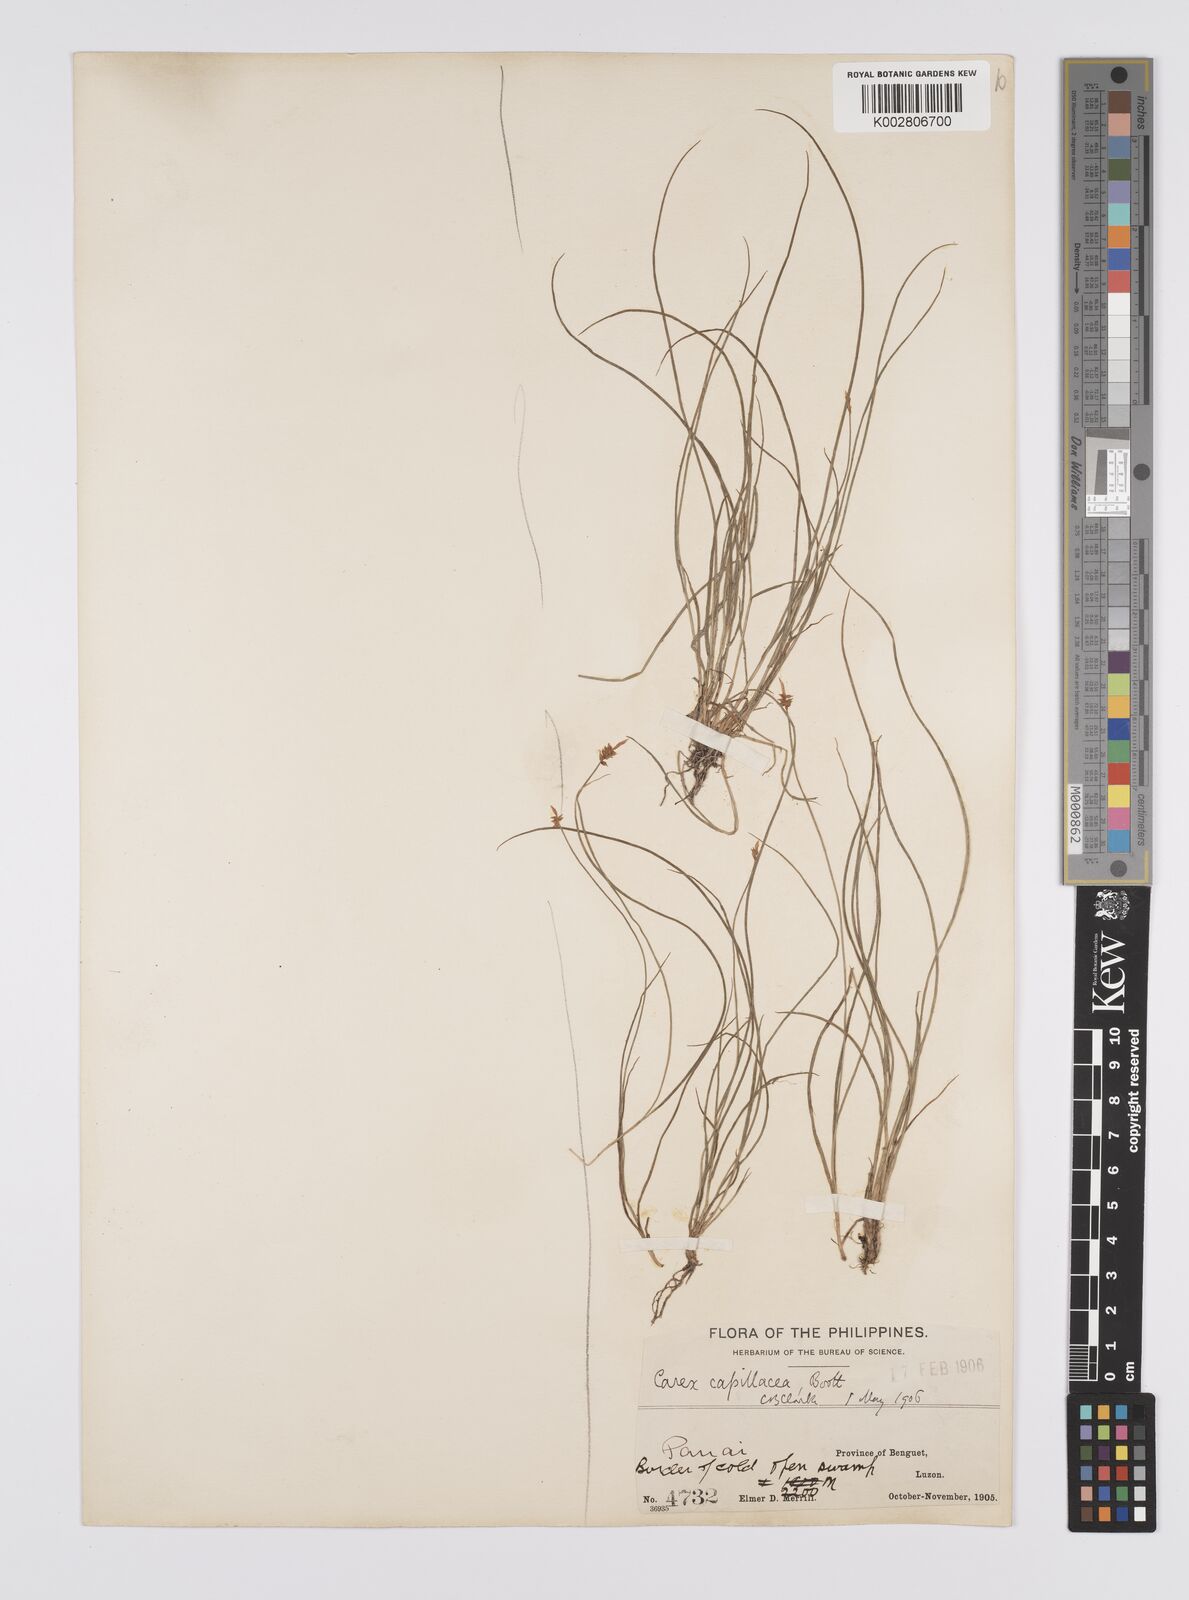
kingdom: Plantae
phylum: Tracheophyta
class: Liliopsida
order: Poales
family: Cyperaceae
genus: Carex
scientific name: Carex capillacea
